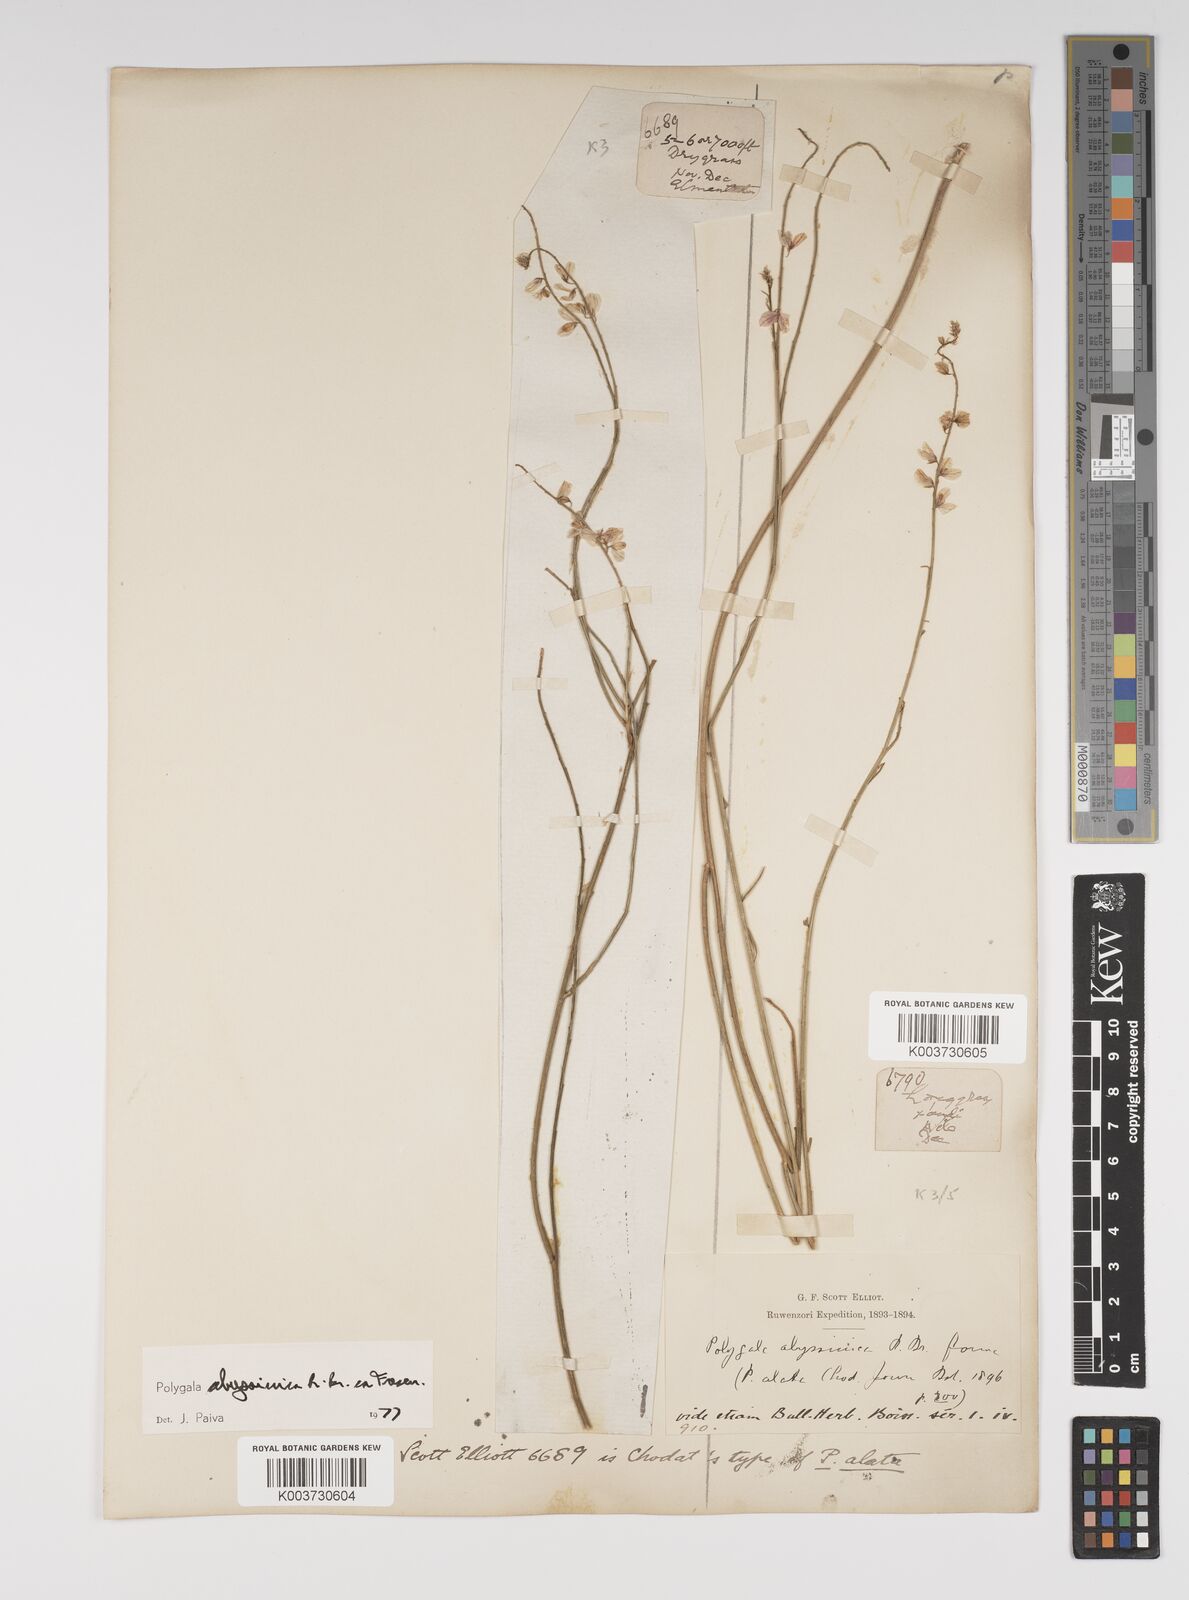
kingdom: Plantae
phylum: Tracheophyta
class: Magnoliopsida
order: Fabales
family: Polygalaceae
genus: Polygala
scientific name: Polygala abyssinica
